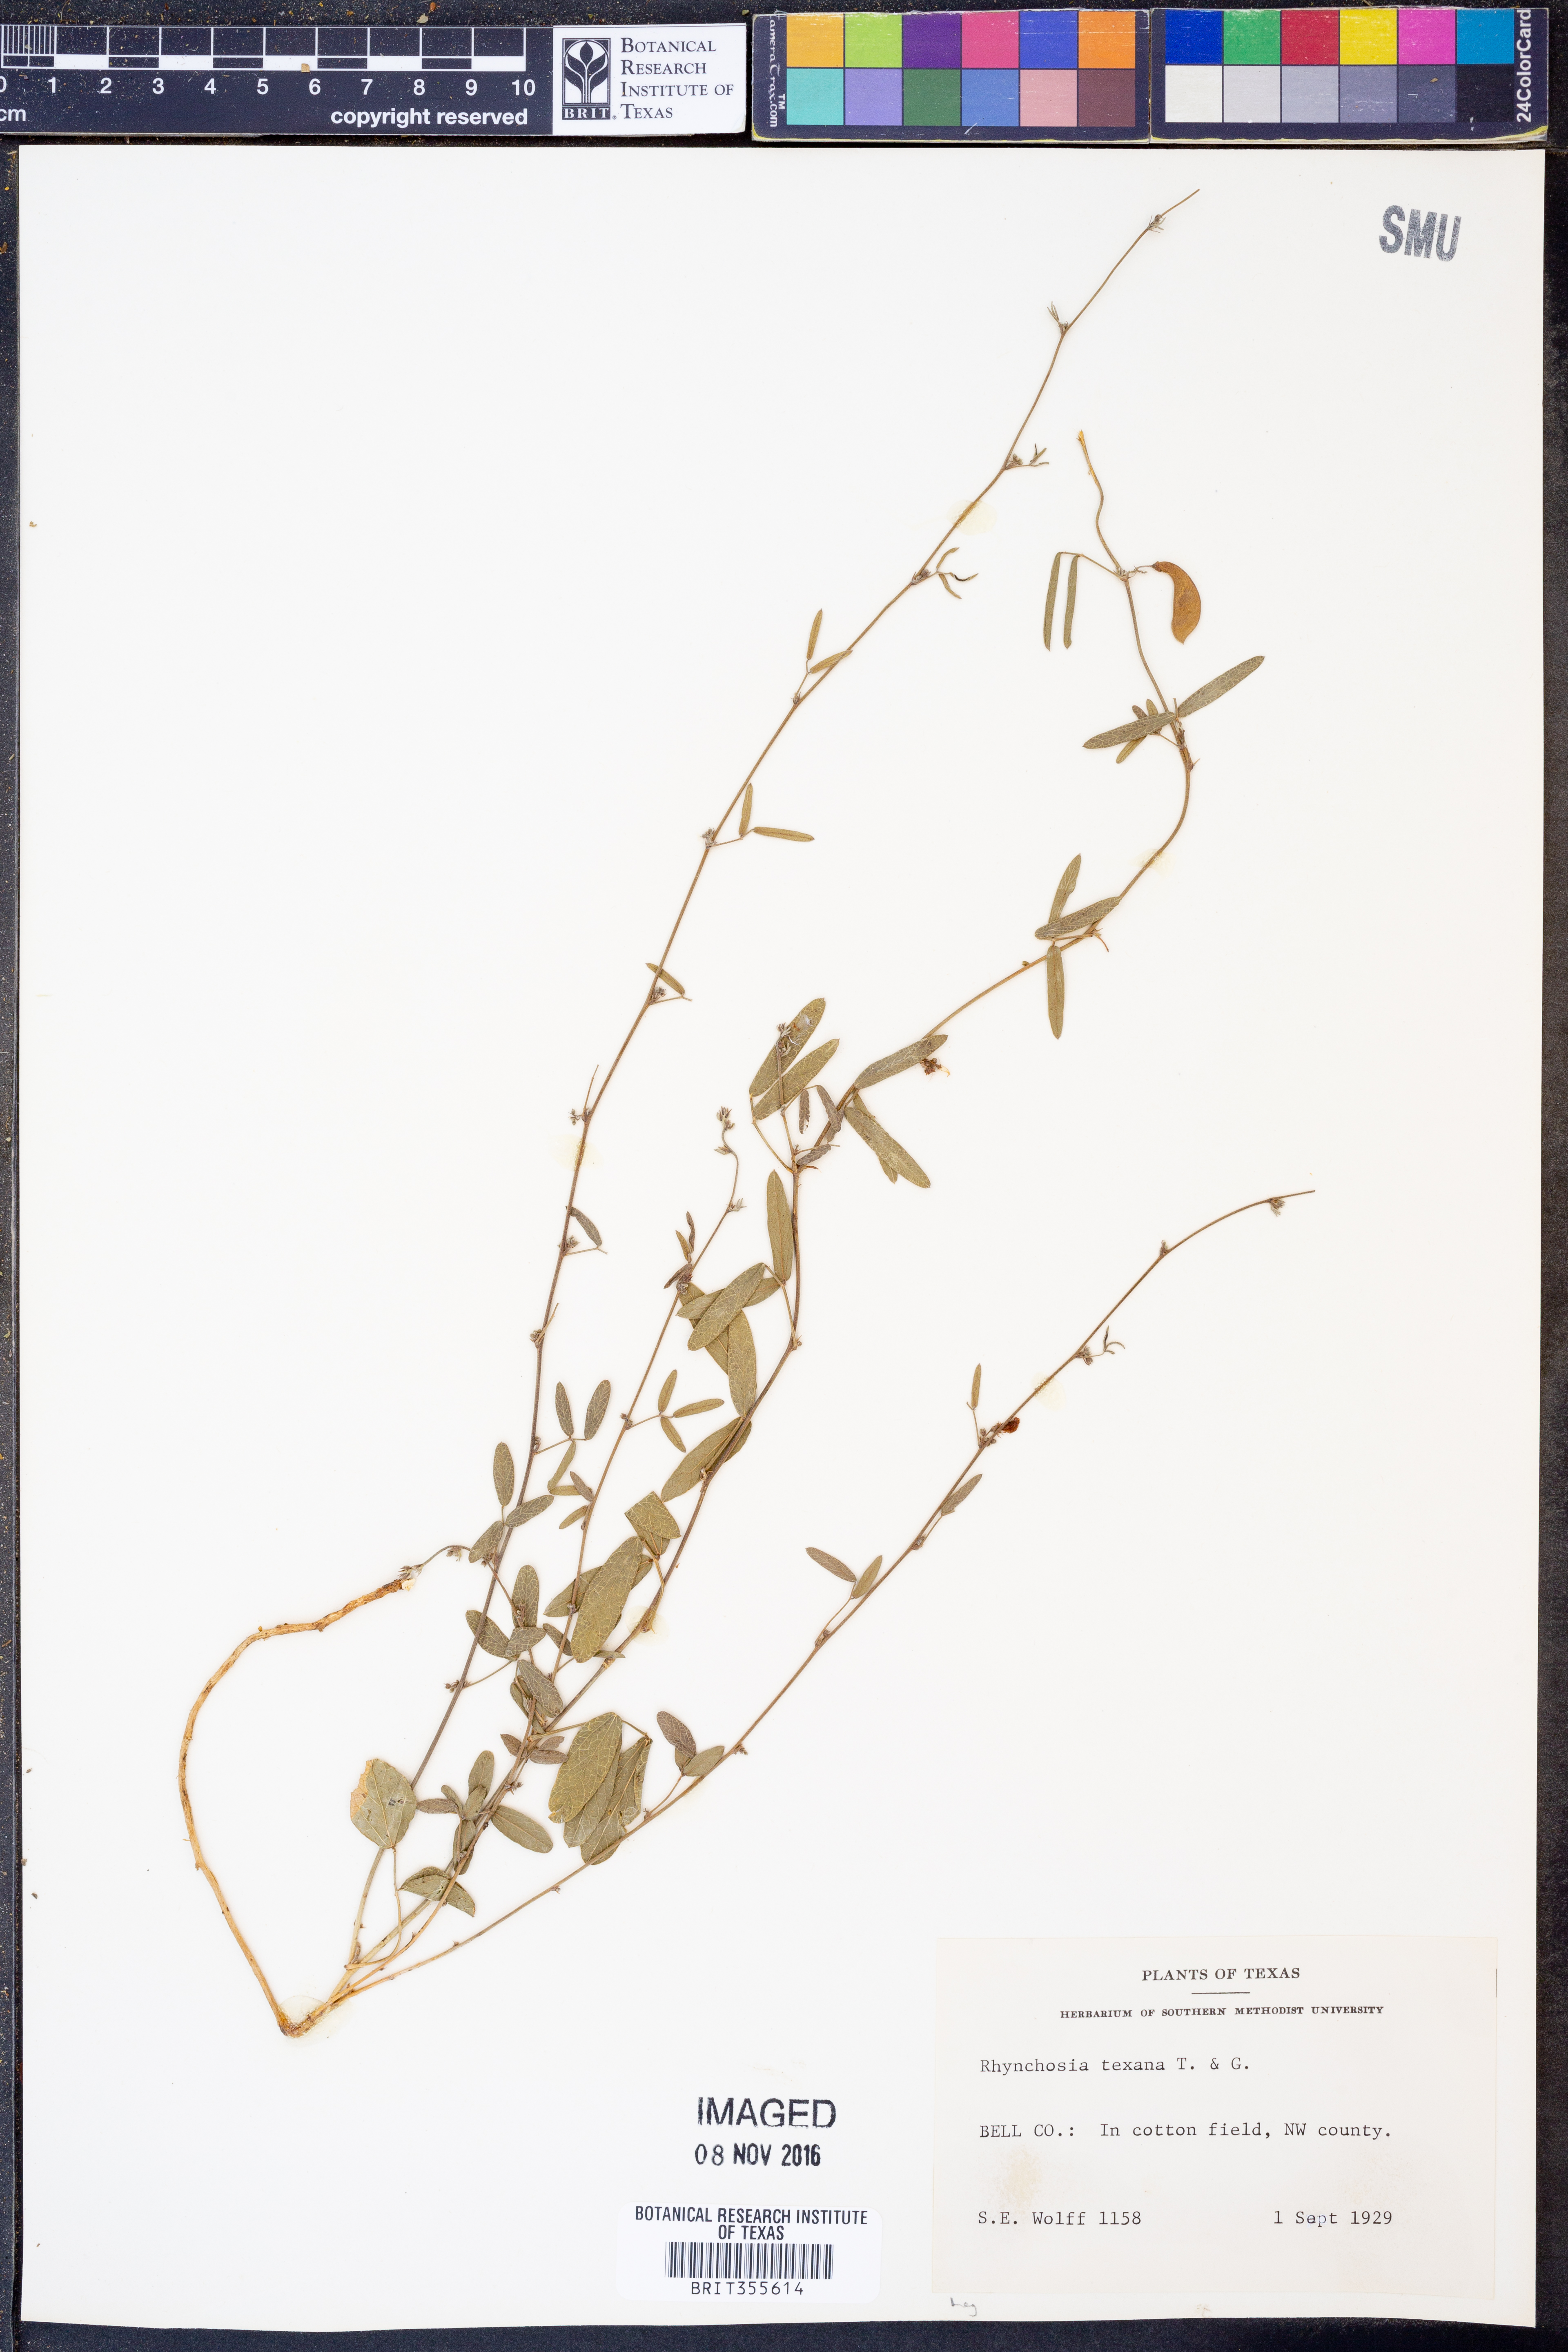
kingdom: Plantae
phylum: Tracheophyta
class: Magnoliopsida
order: Fabales
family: Fabaceae
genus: Rhynchosia
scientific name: Rhynchosia senna
